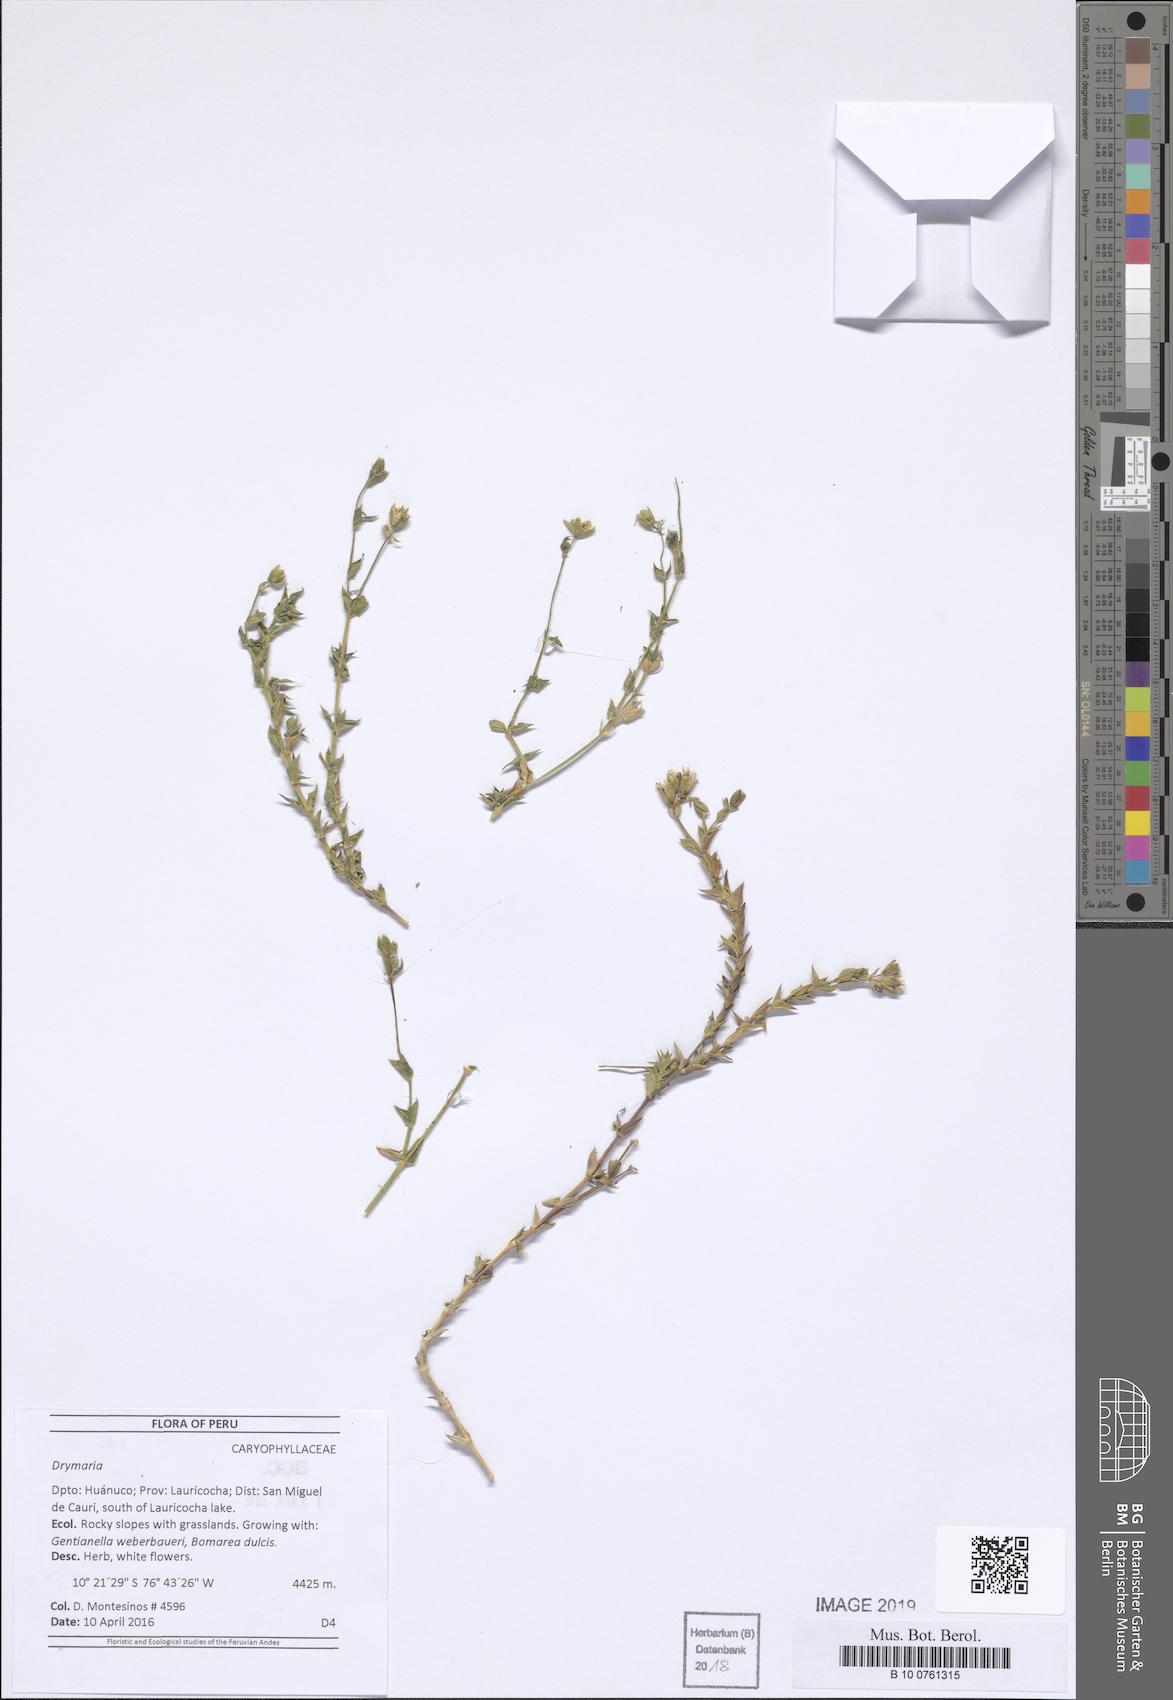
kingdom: Plantae
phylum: Tracheophyta
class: Magnoliopsida
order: Caryophyllales
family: Caryophyllaceae
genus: Drymaria
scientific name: Drymaria
